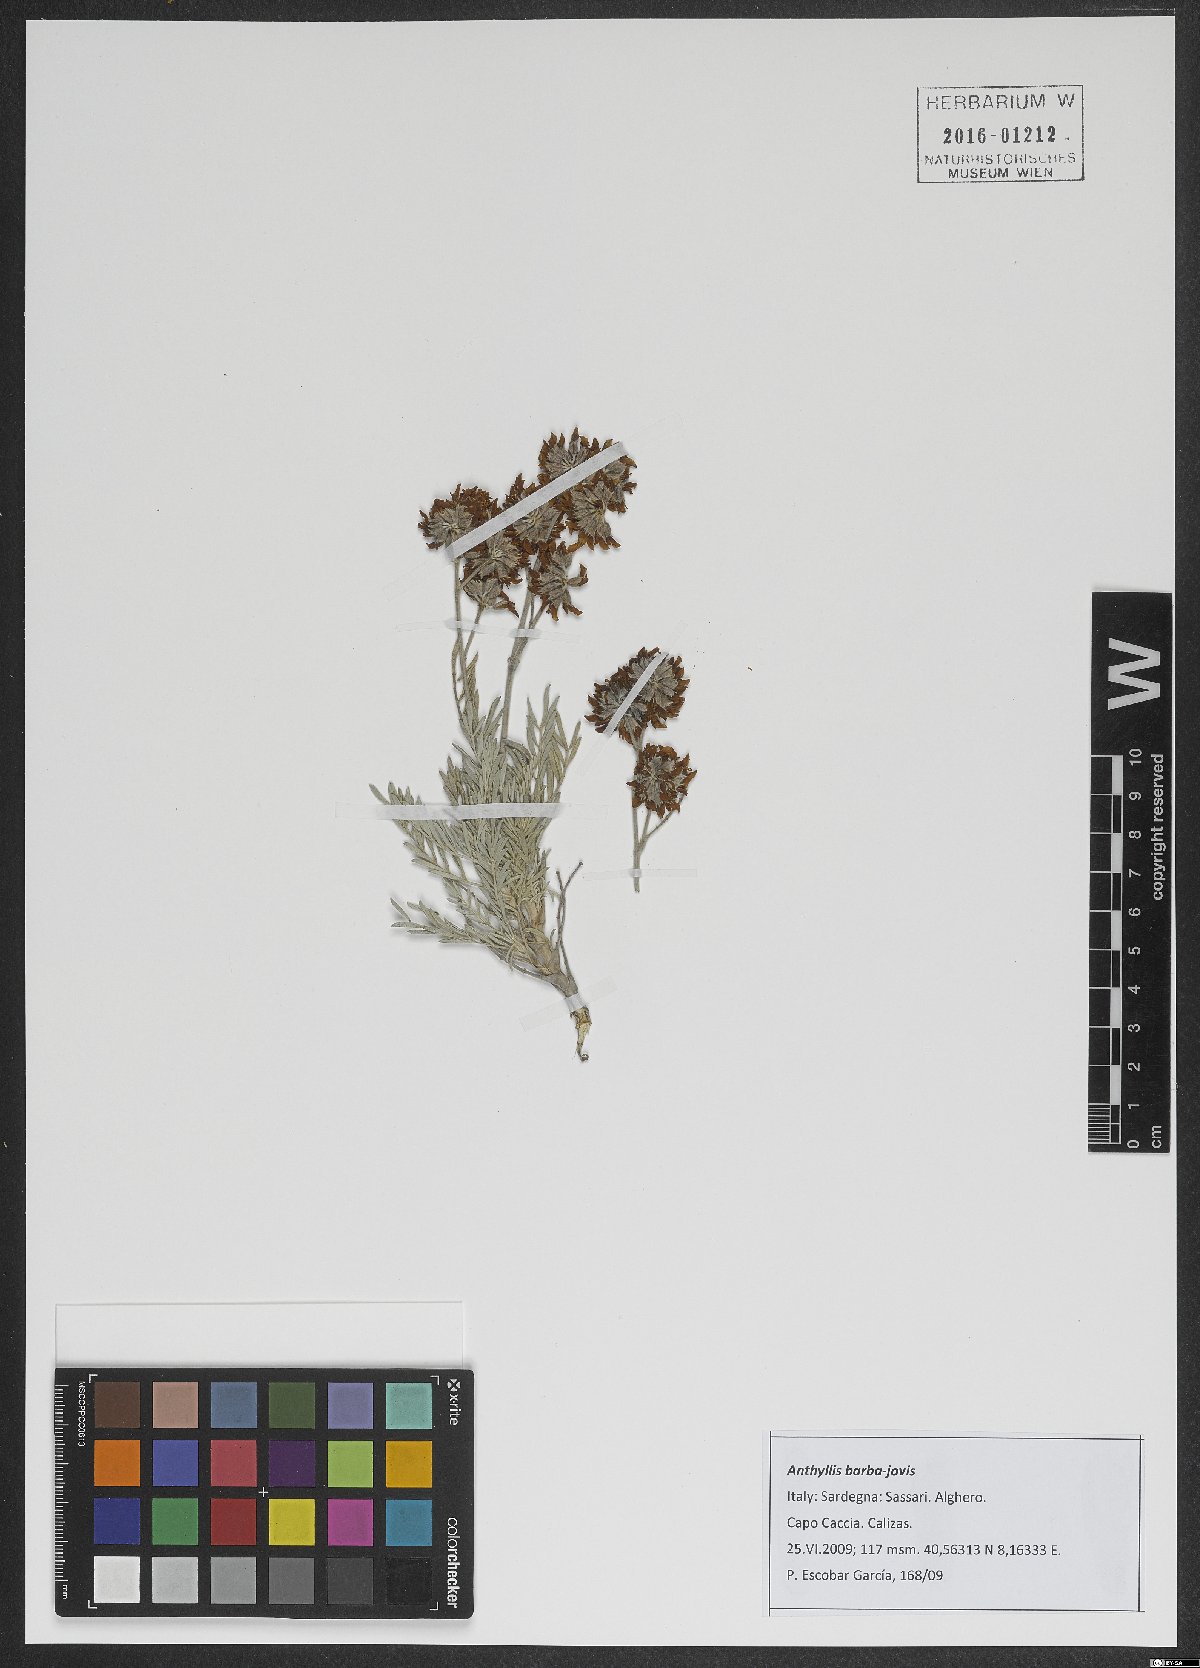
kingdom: Plantae
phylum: Tracheophyta
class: Magnoliopsida
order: Fabales
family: Fabaceae
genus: Anthyllis
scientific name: Anthyllis barba-jovis
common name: Jupiter's-beard
